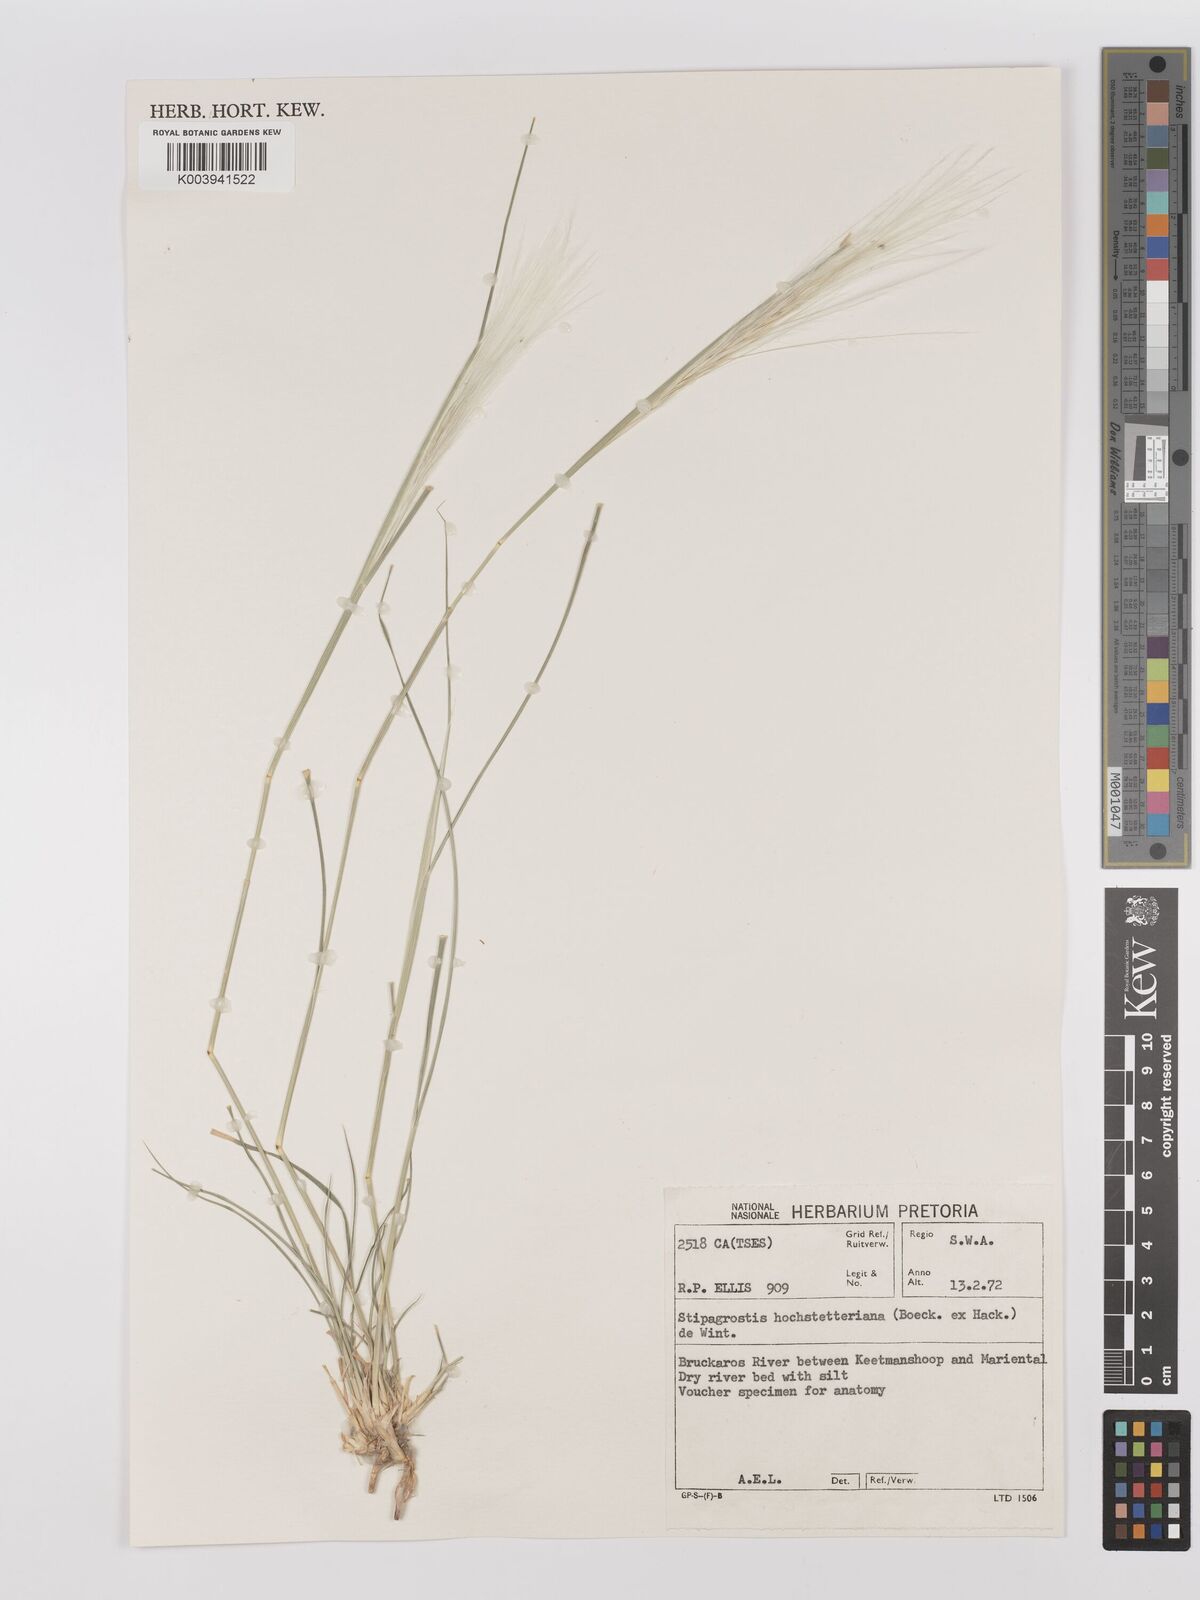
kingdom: Plantae
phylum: Tracheophyta
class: Liliopsida
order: Poales
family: Poaceae
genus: Stipagrostis
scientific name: Stipagrostis hochstetteriana
